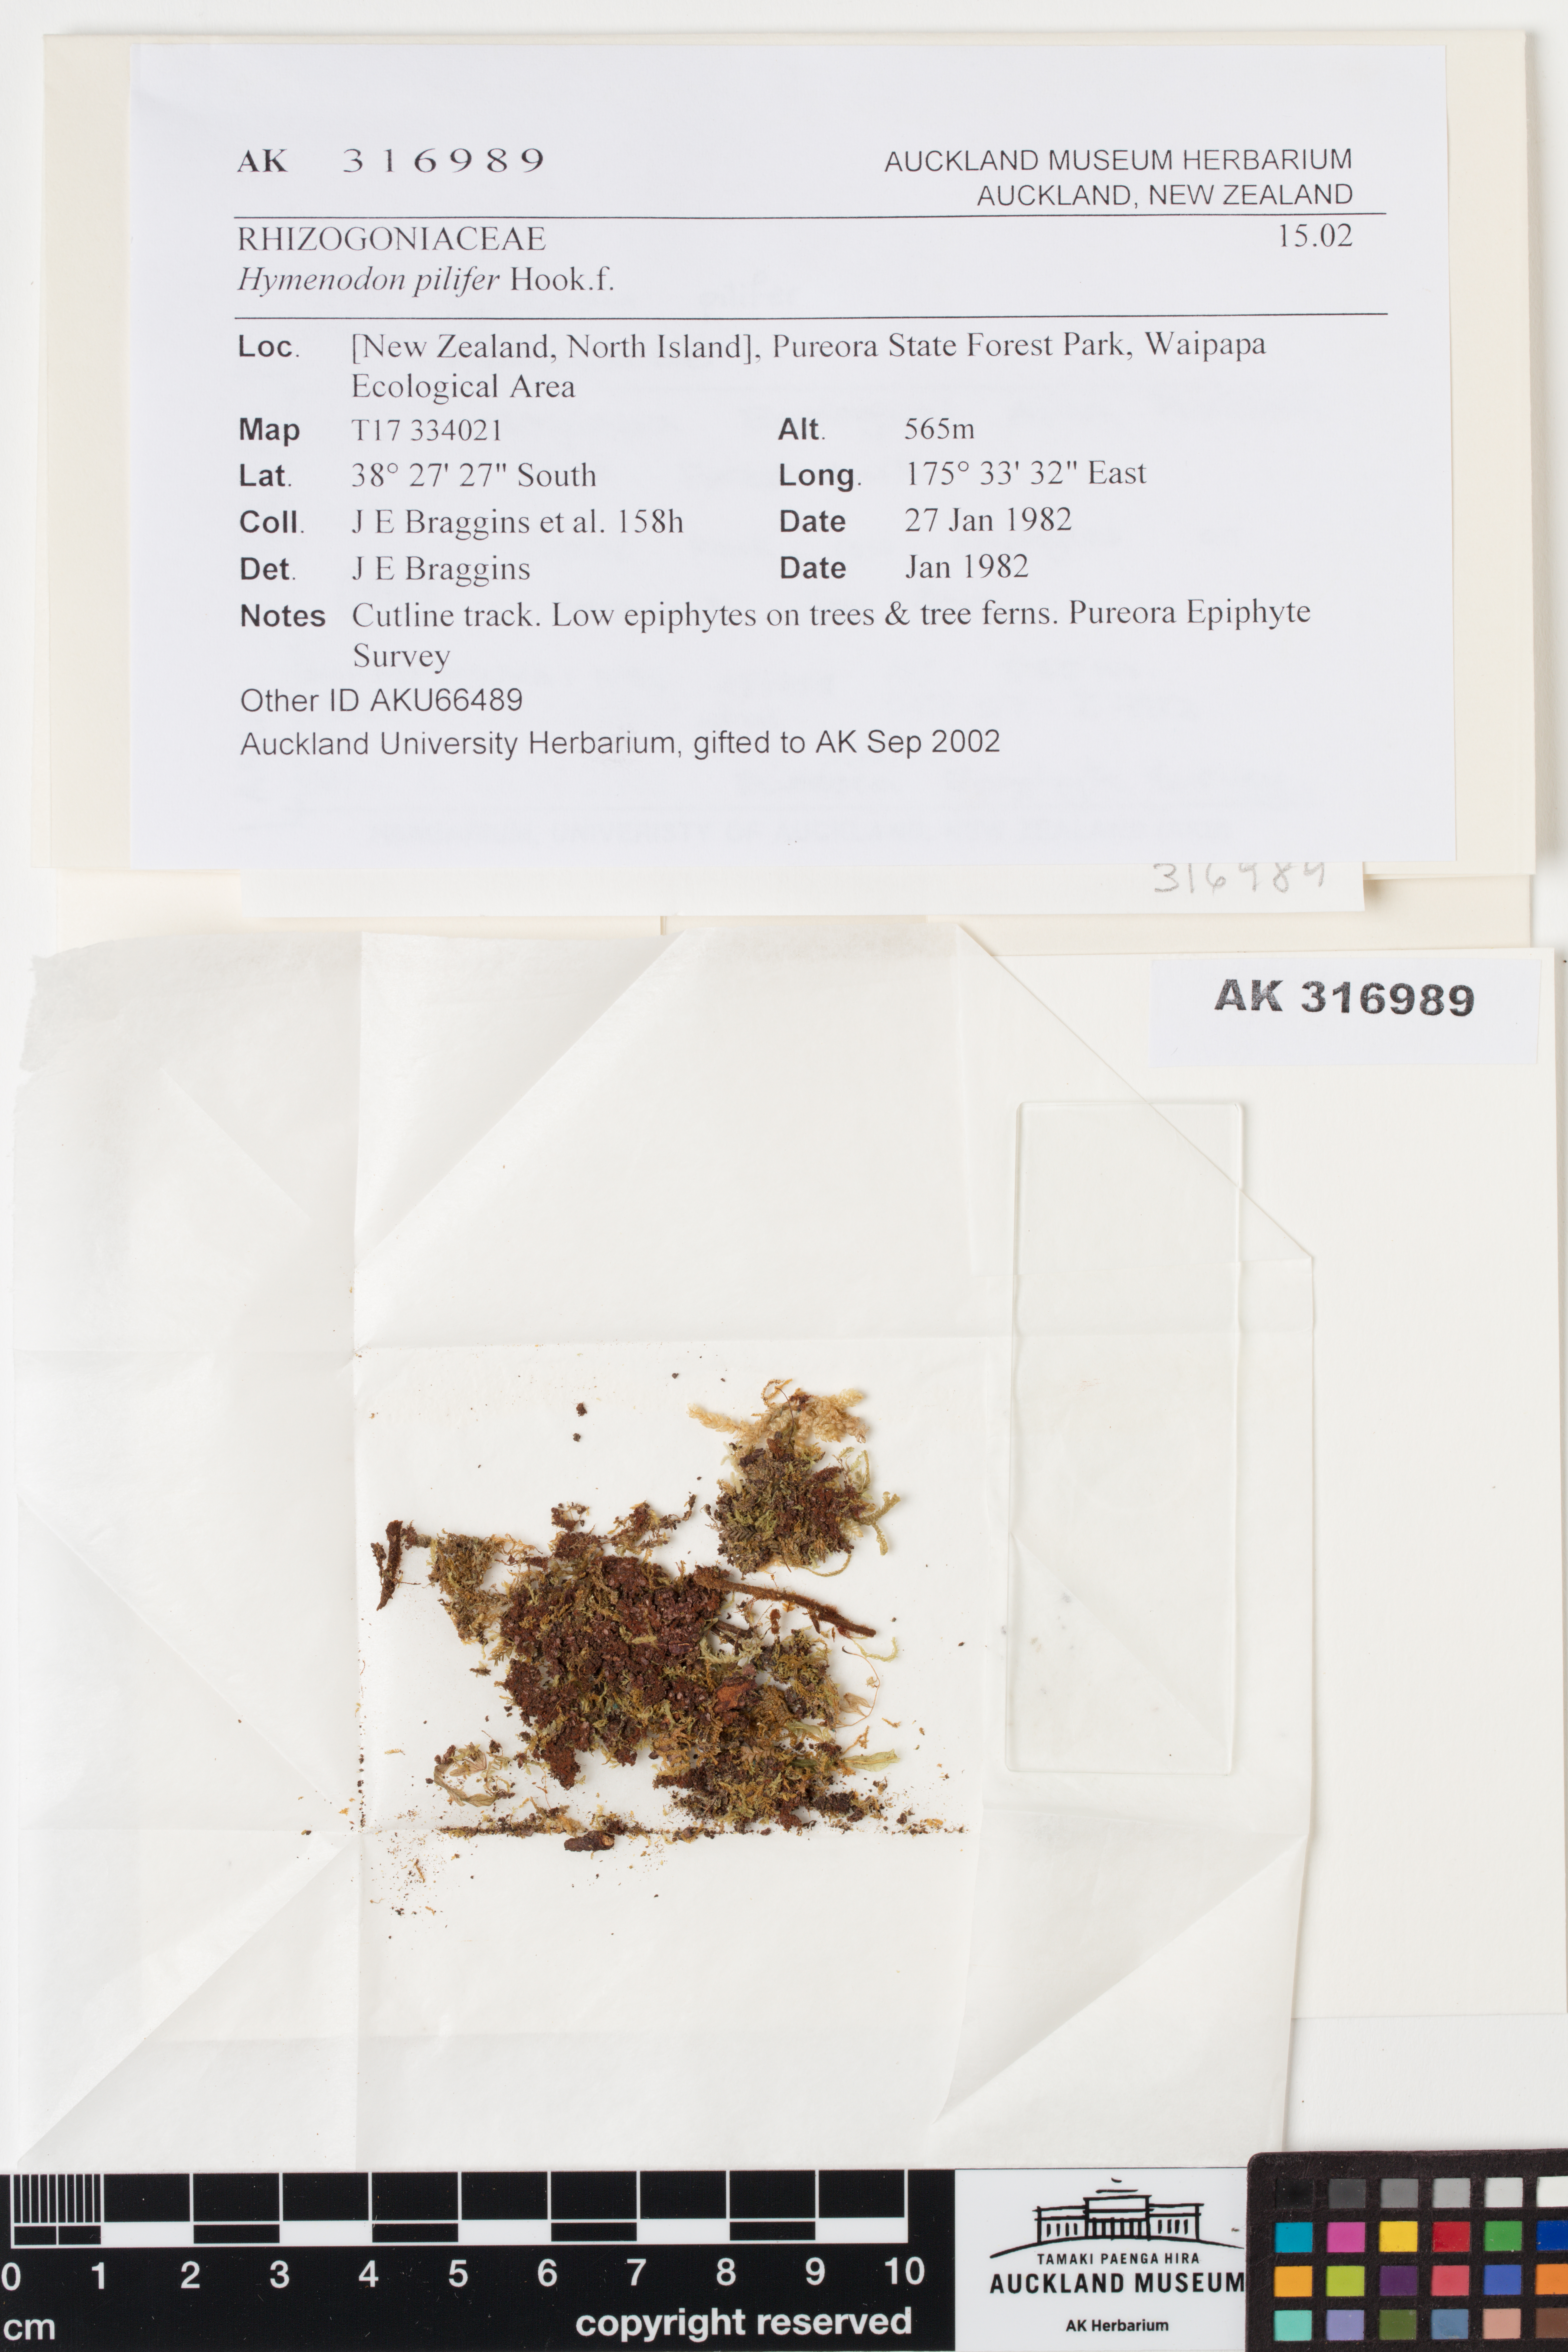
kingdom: Plantae
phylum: Bryophyta
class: Bryopsida
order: Orthodontiales
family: Orthodontiaceae
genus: Hymenodon
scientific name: Hymenodon pilifer
